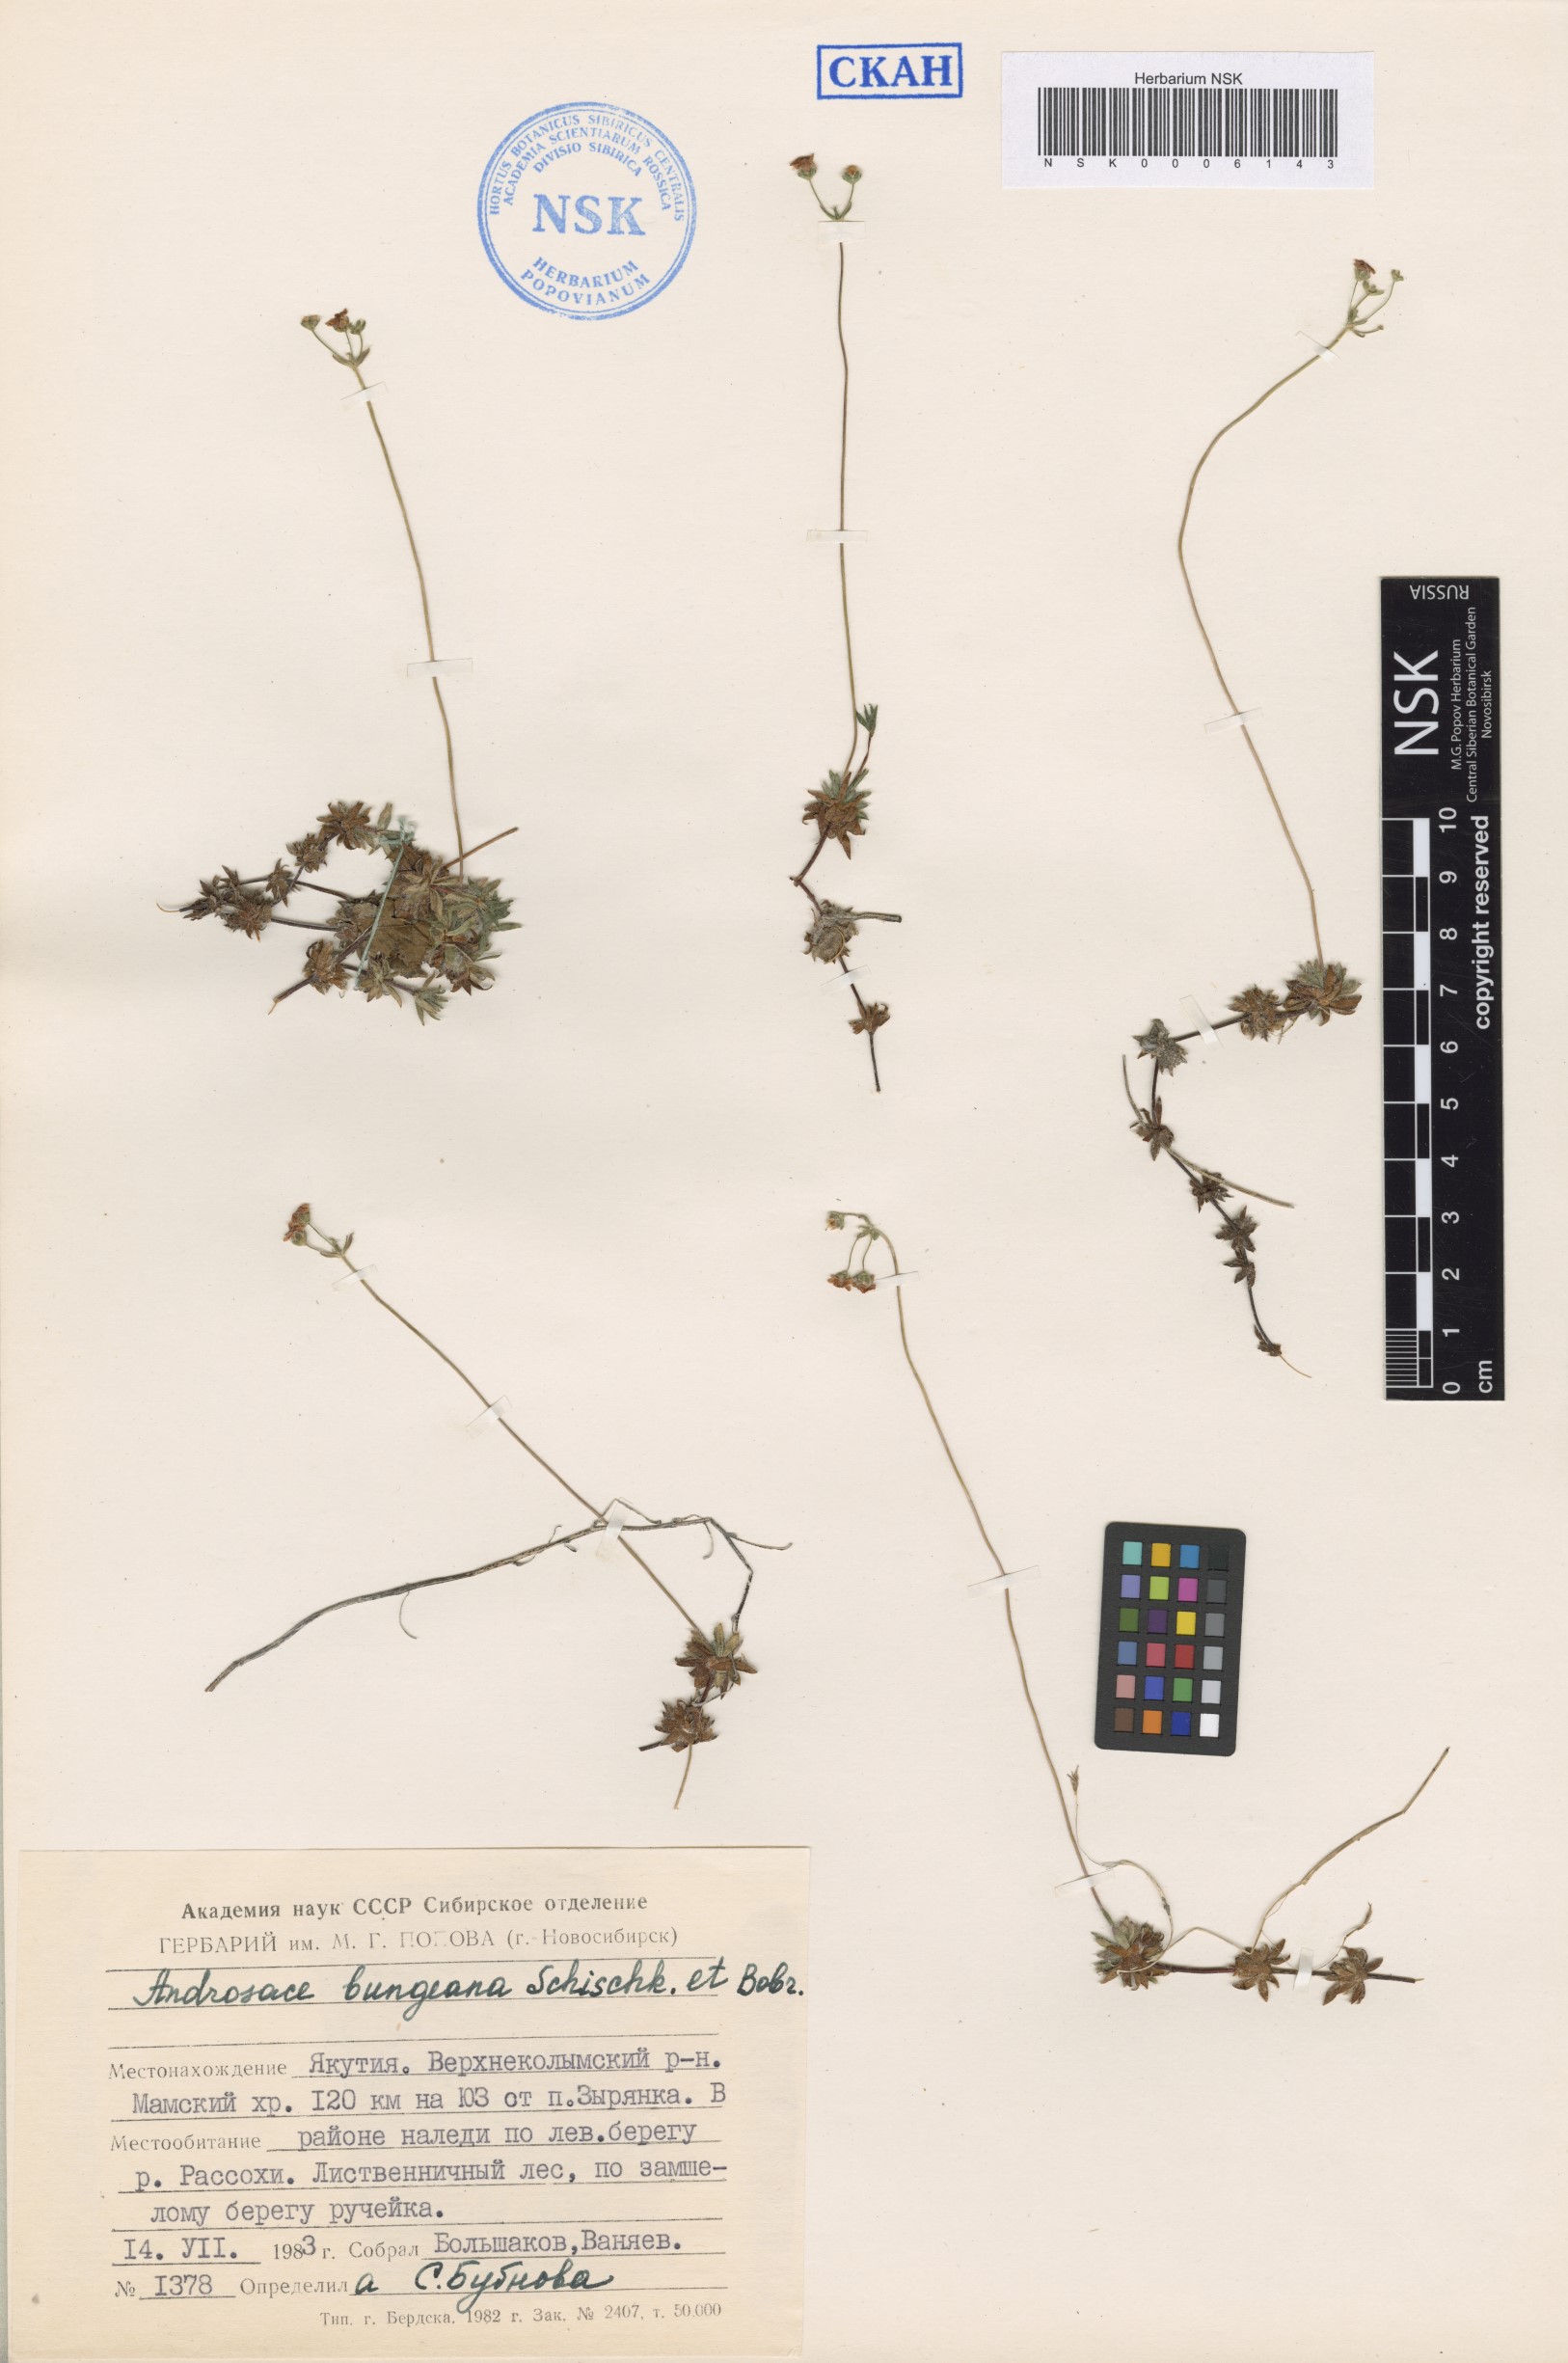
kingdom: Plantae
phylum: Tracheophyta
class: Magnoliopsida
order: Ericales
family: Primulaceae
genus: Androsace
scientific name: Androsace bungeana
